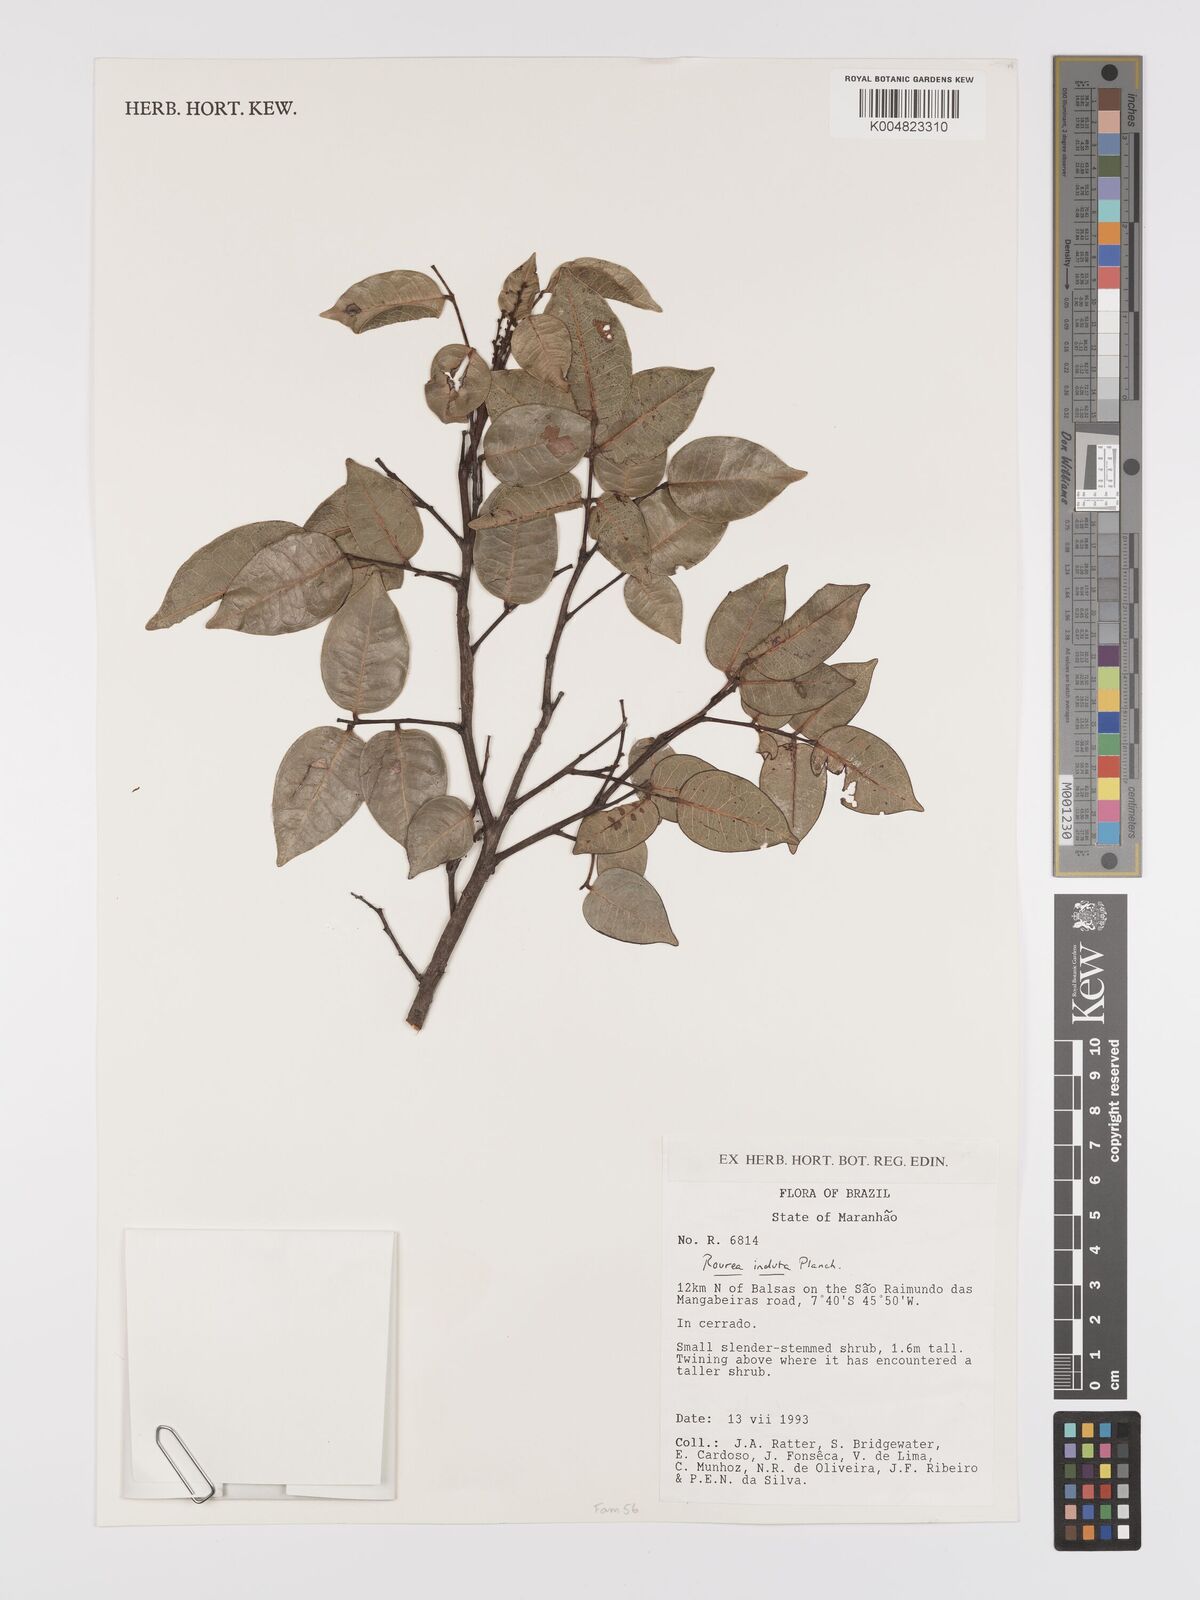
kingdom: Plantae
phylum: Tracheophyta
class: Magnoliopsida
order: Oxalidales
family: Connaraceae
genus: Rourea
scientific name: Rourea induta
